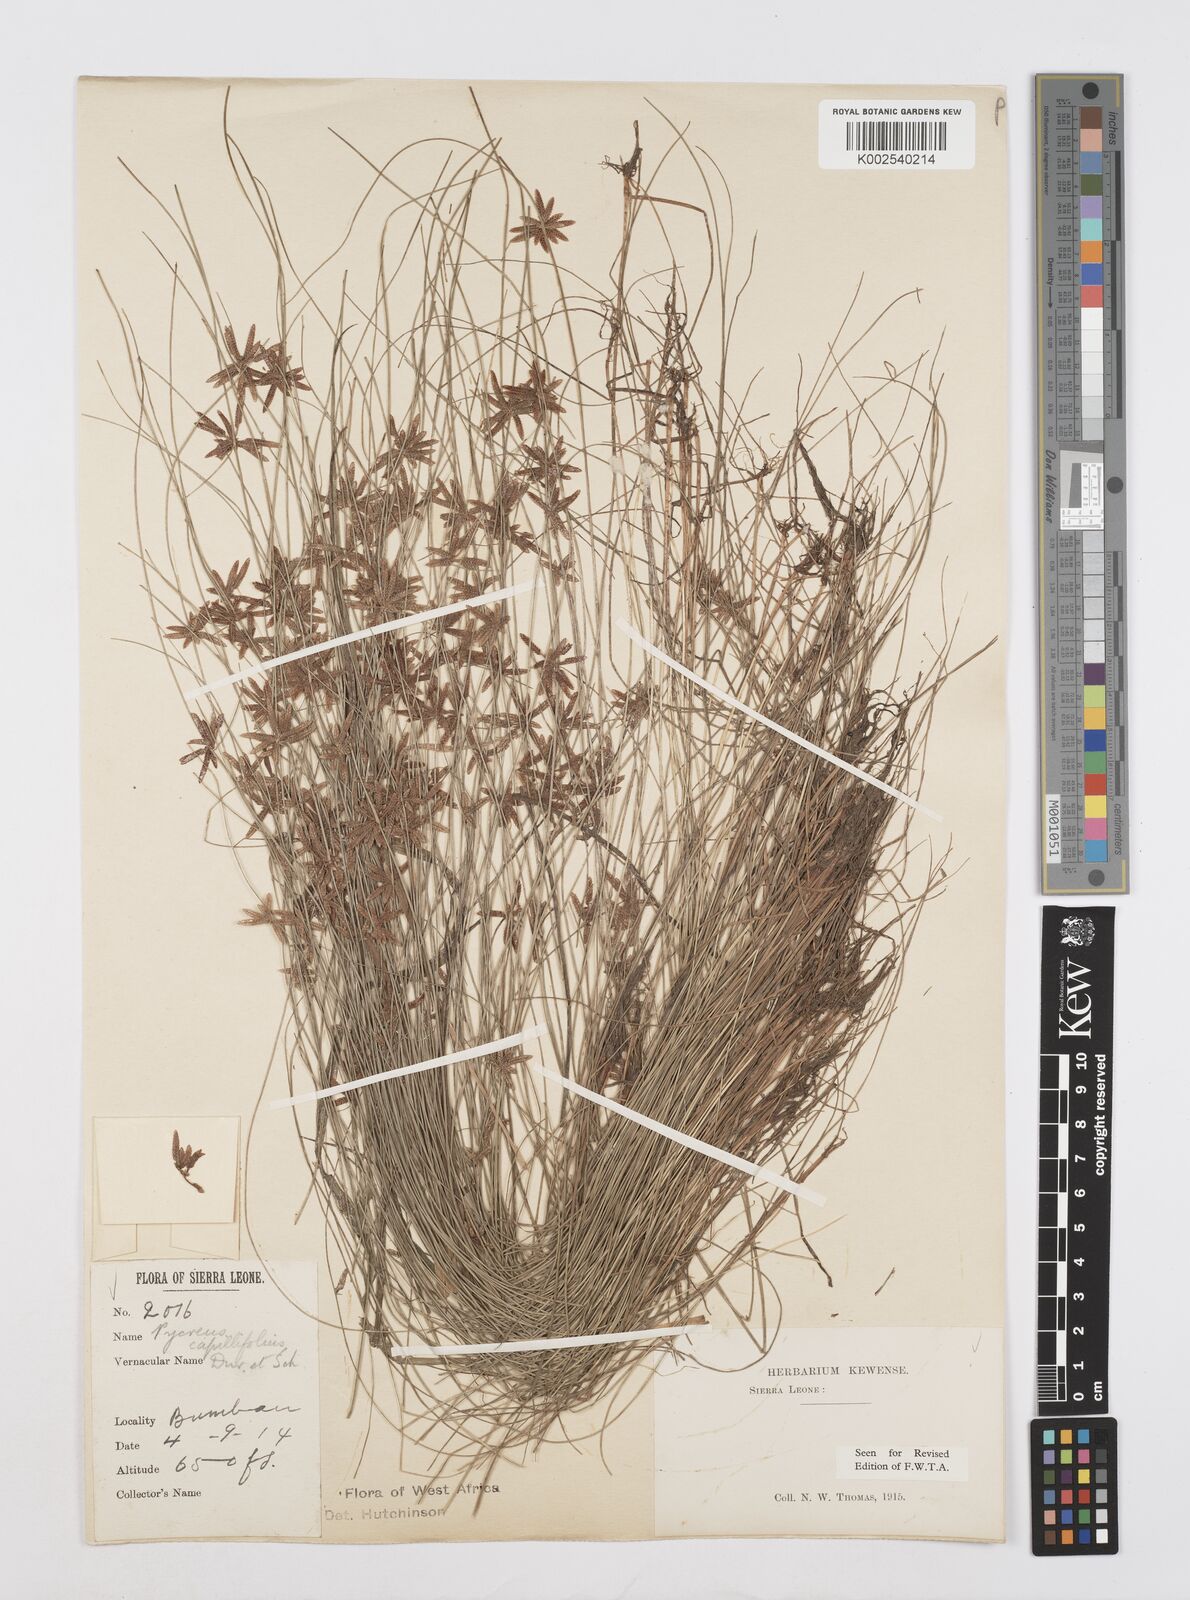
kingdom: Plantae
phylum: Tracheophyta
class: Liliopsida
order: Poales
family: Cyperaceae
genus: Cyperus
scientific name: Cyperus capillifolius
